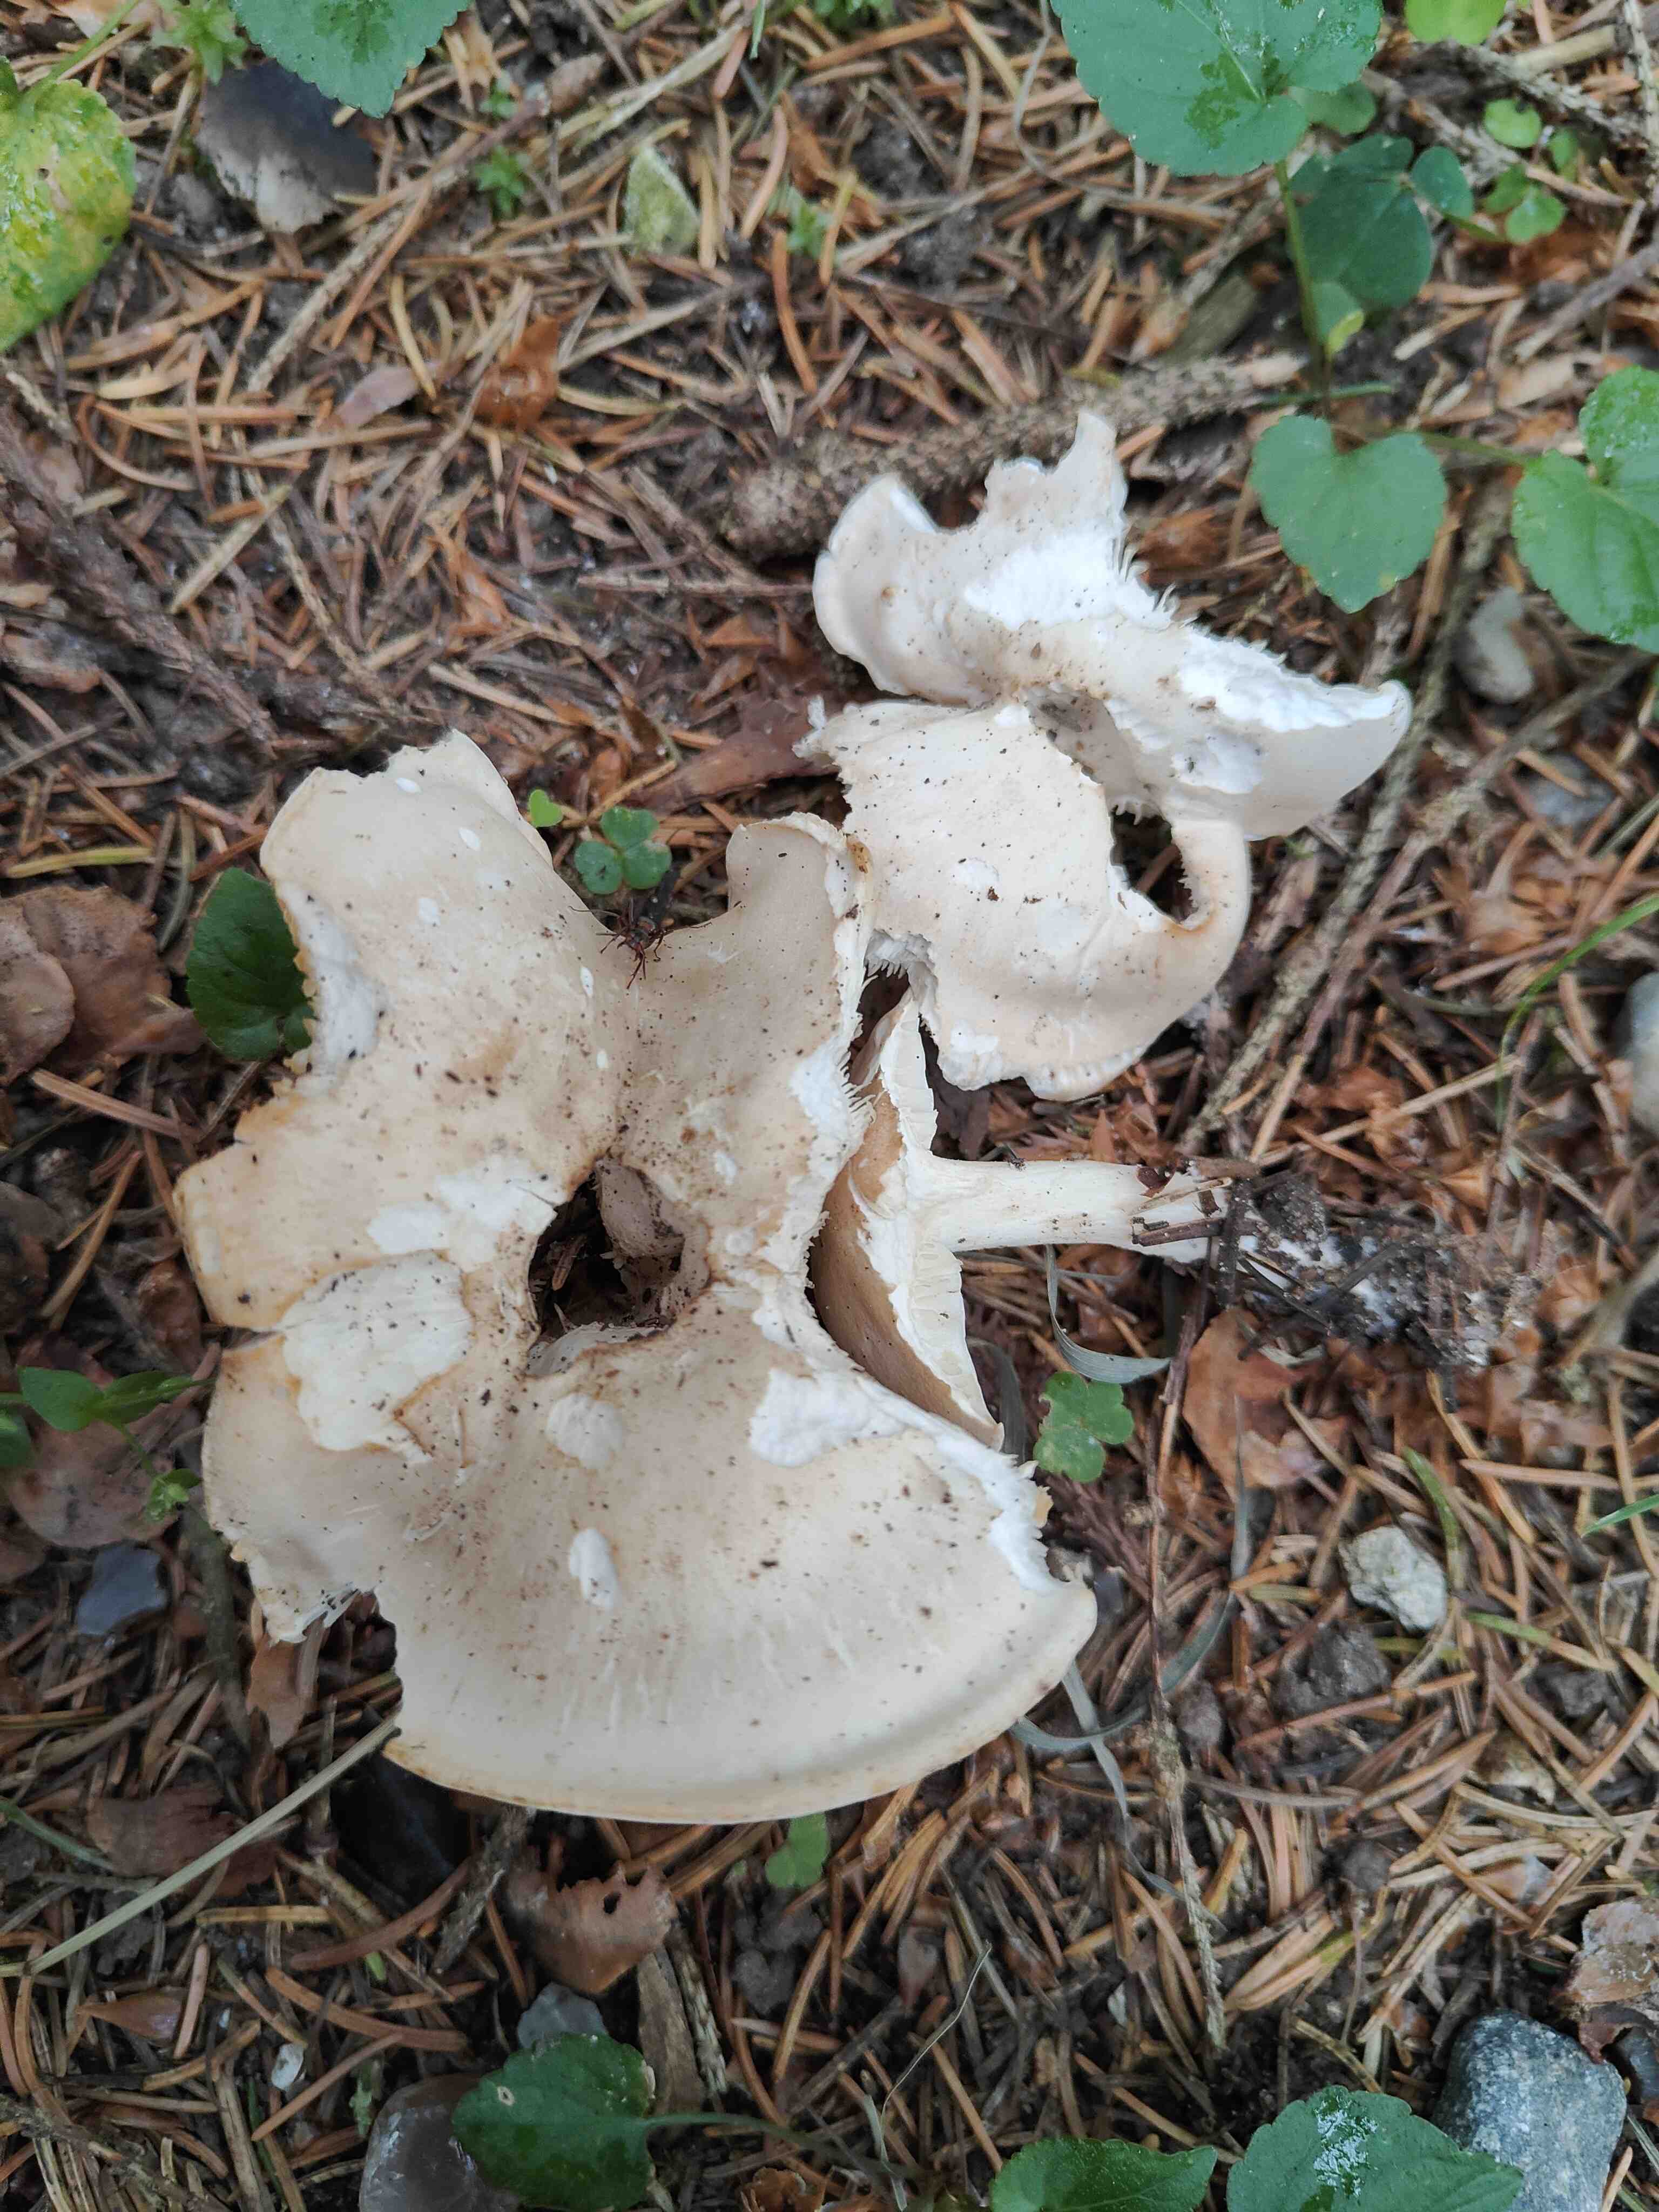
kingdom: Fungi
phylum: Basidiomycota
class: Agaricomycetes
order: Agaricales
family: Lyophyllaceae
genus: Calocybe
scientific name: Calocybe gambosa
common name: vårmusseron
